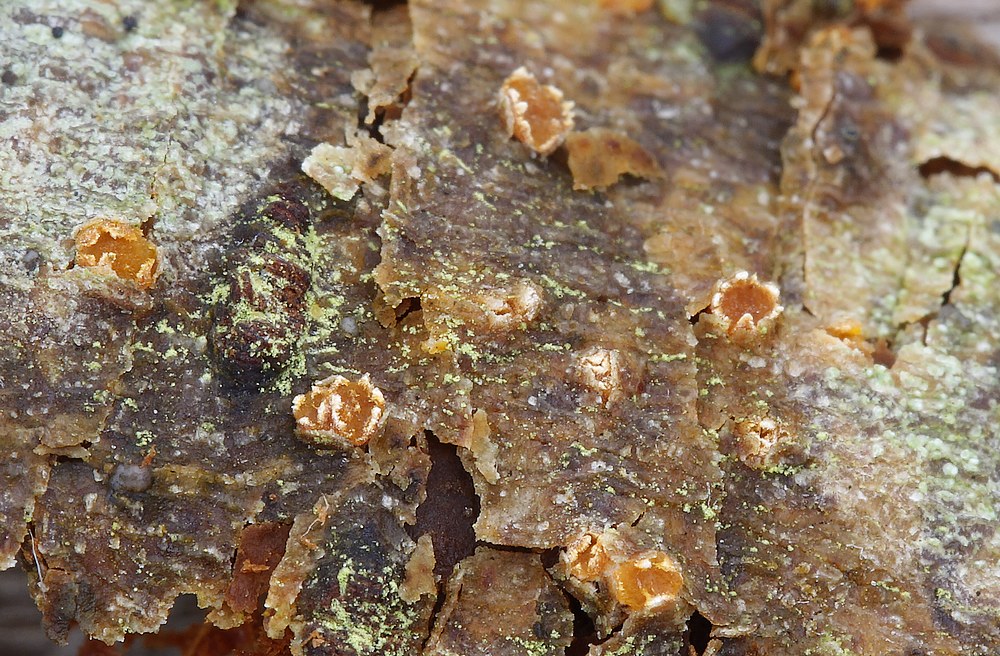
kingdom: Fungi
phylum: Ascomycota
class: Leotiomycetes
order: Helotiales
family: Dermateaceae
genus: Pezicula
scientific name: Pezicula ocellata
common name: tandet klyngeskive
